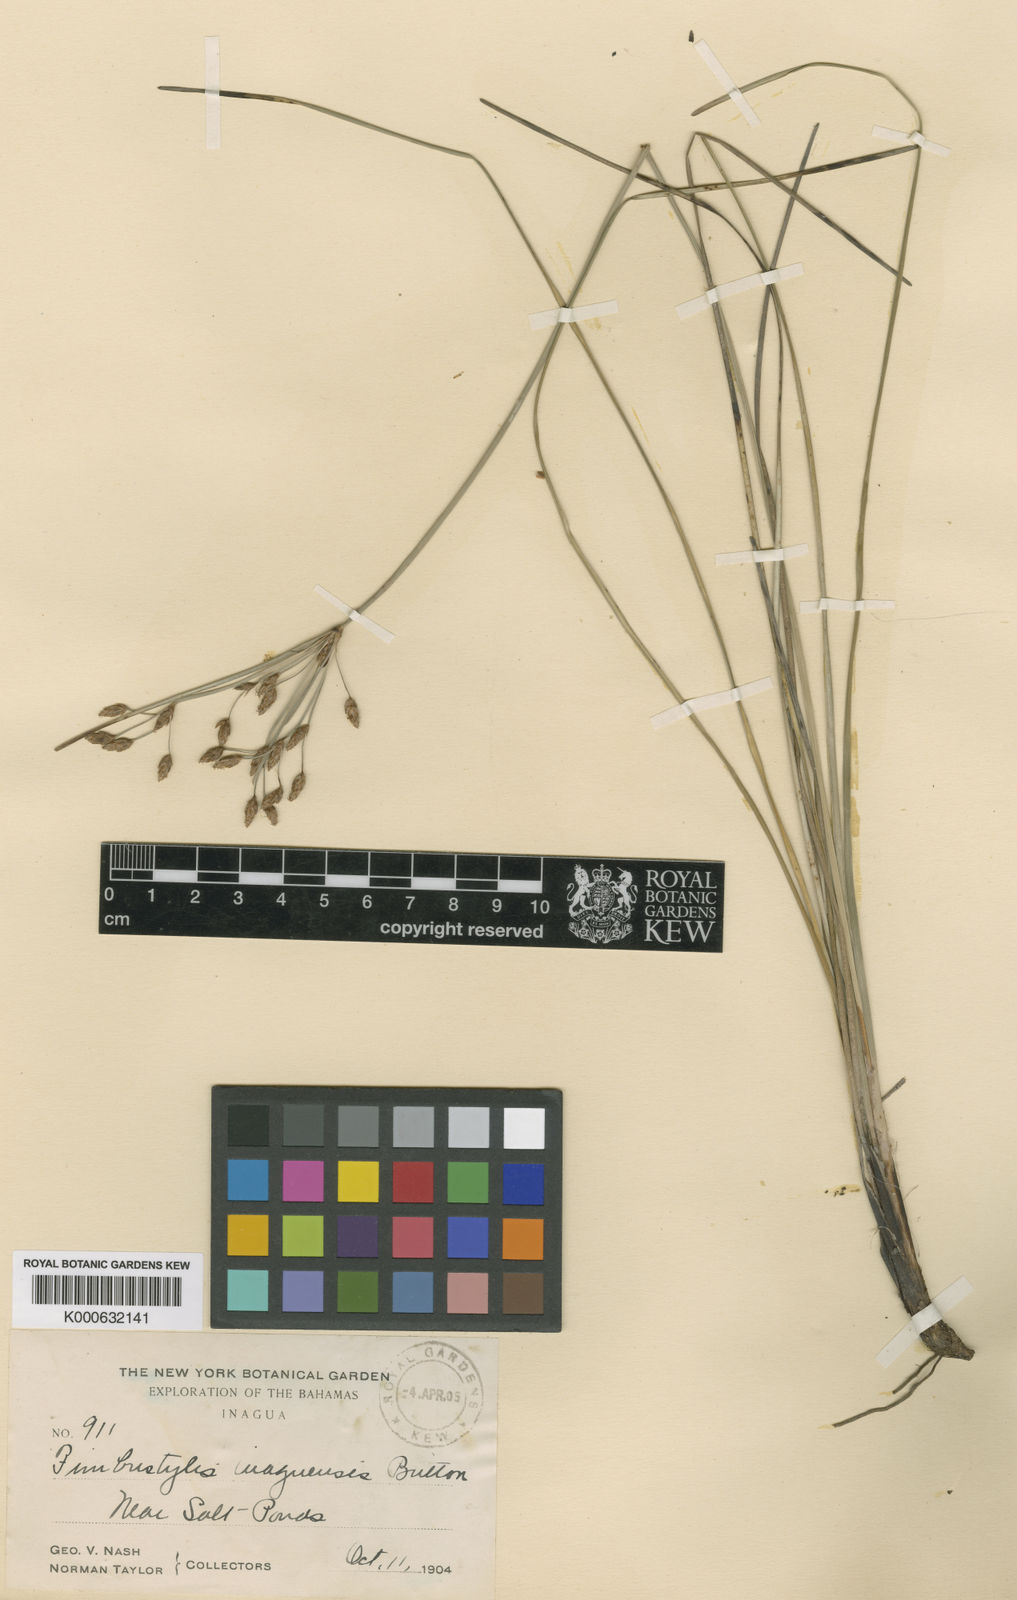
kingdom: Plantae
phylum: Tracheophyta
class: Liliopsida
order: Poales
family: Cyperaceae
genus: Fimbristylis
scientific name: Fimbristylis inaguensis
